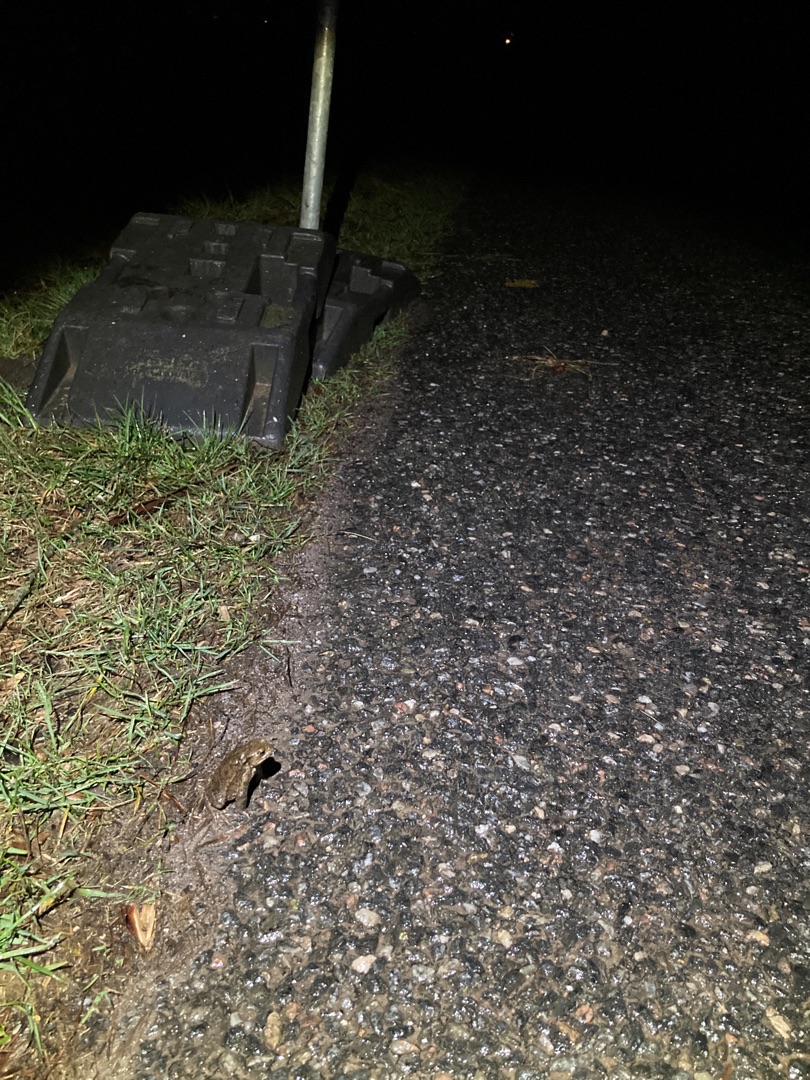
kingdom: Animalia
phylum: Chordata
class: Amphibia
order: Anura
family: Bufonidae
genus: Bufo
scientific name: Bufo bufo
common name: Skrubtudse
